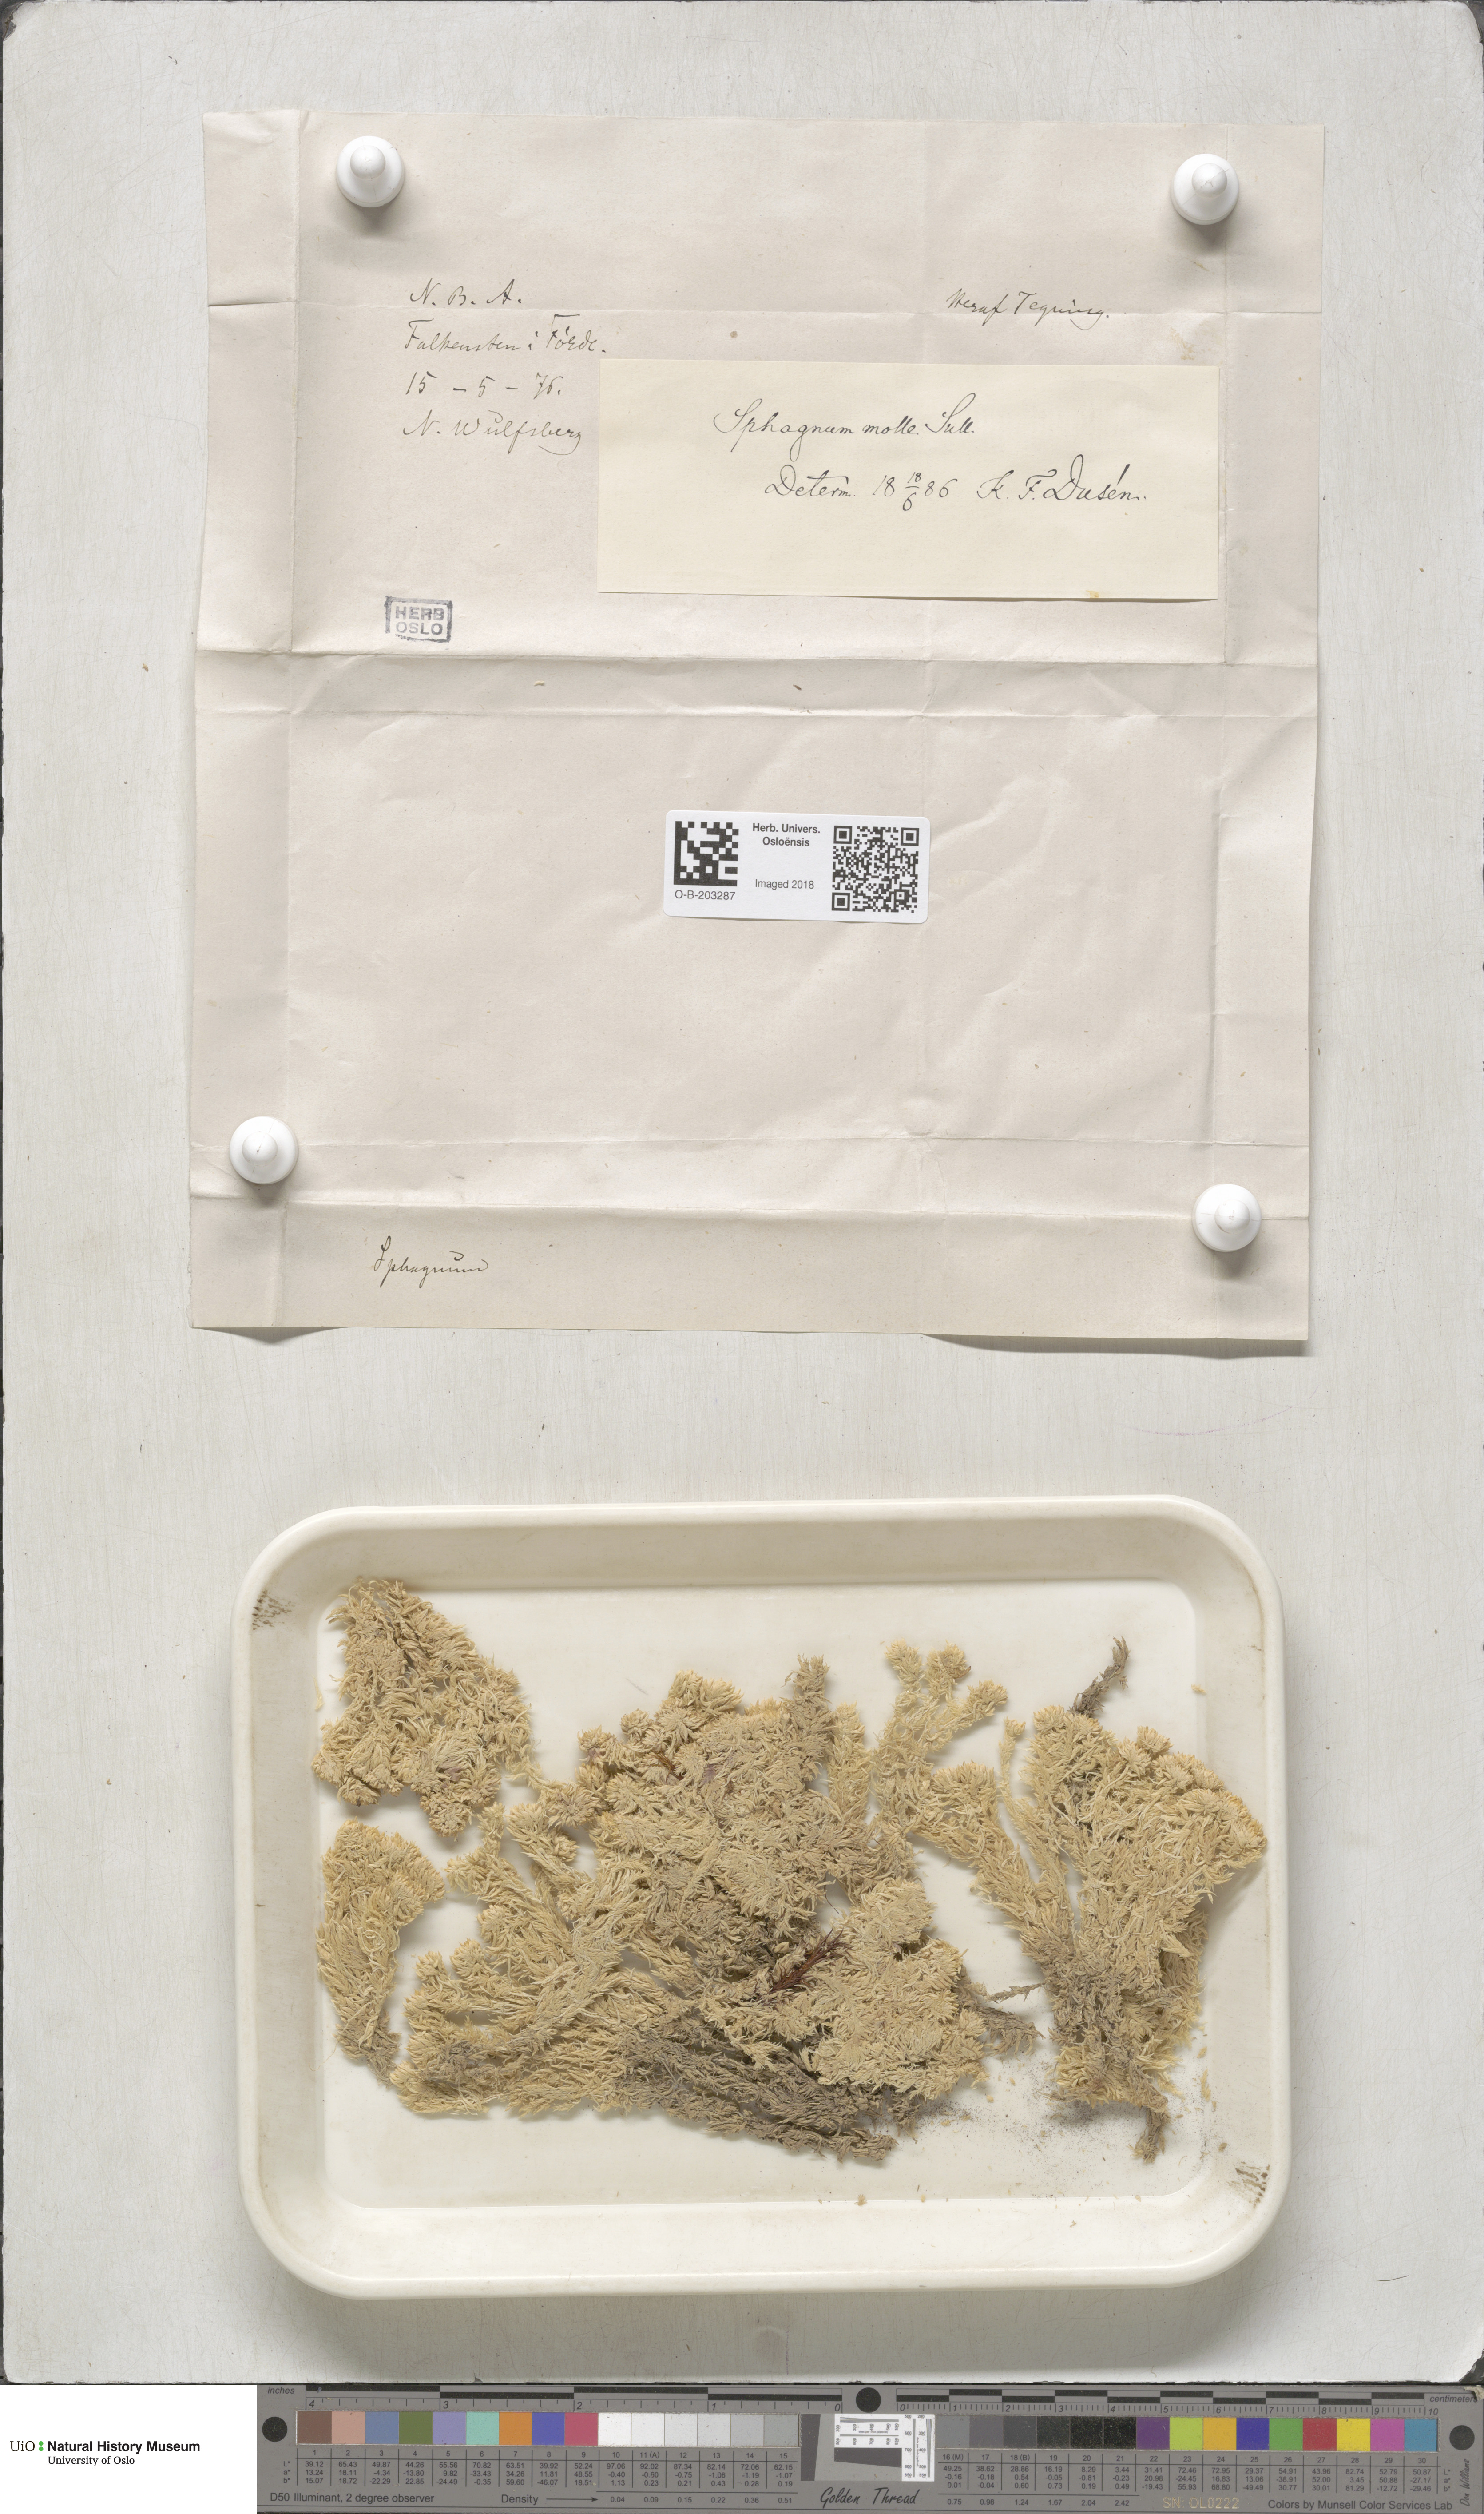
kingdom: Plantae
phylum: Bryophyta
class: Sphagnopsida
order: Sphagnales
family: Sphagnaceae
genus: Sphagnum
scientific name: Sphagnum molle
